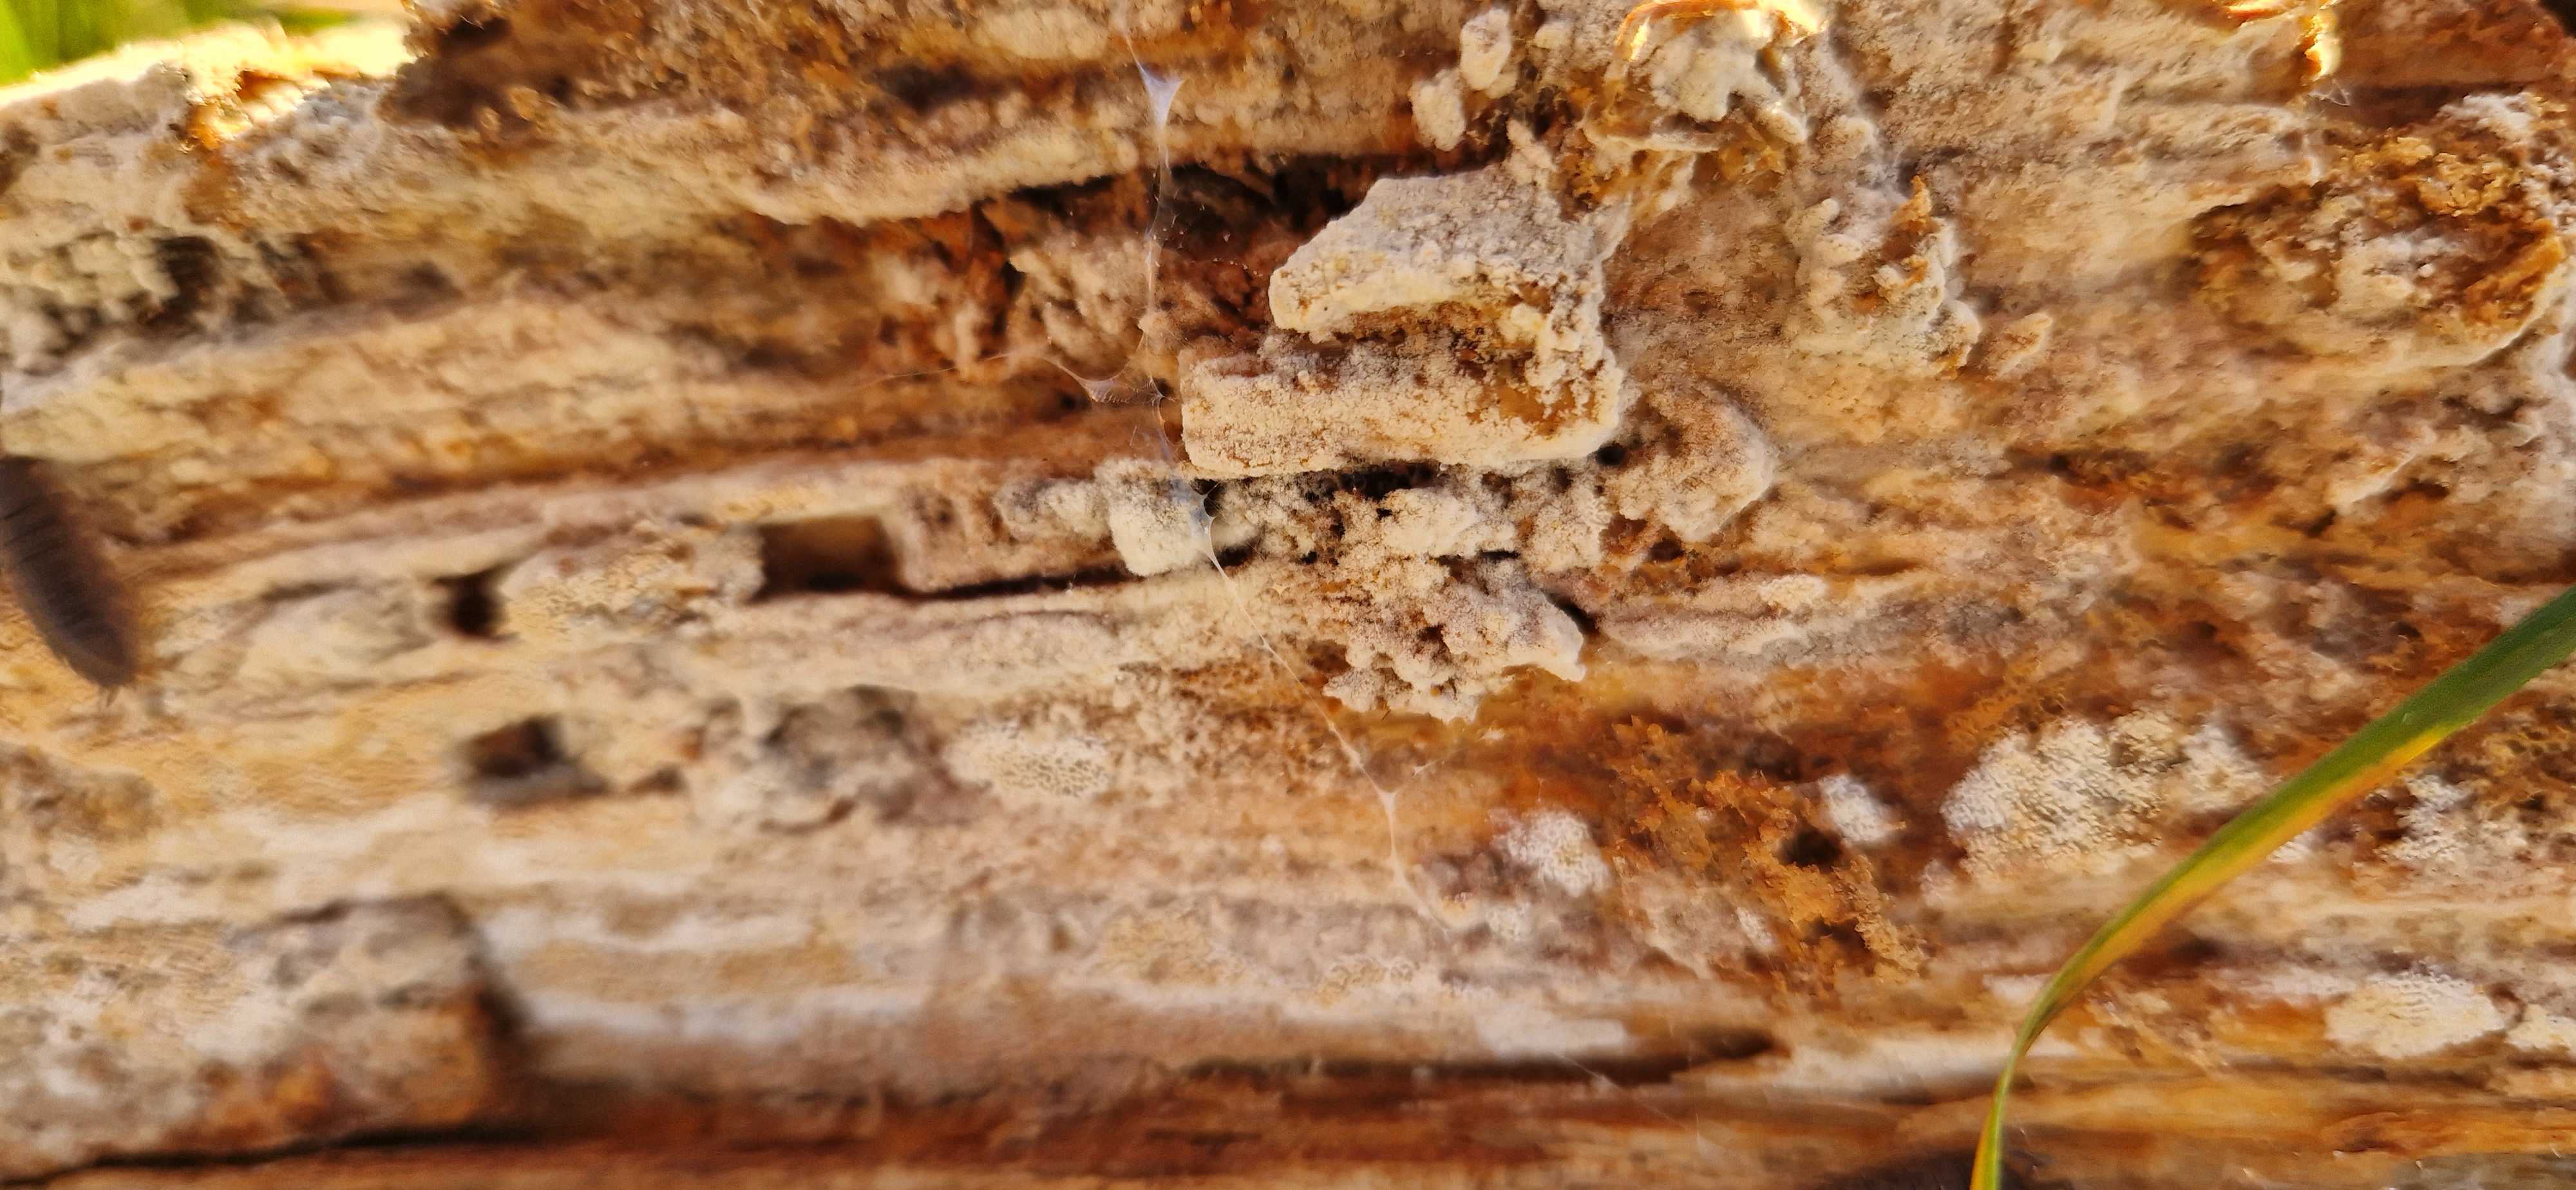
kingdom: Fungi
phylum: Basidiomycota
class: Agaricomycetes
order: Hymenochaetales
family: Schizoporaceae
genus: Xylodon
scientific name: Xylodon subtropicus
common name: labyrint-tandsvamp
